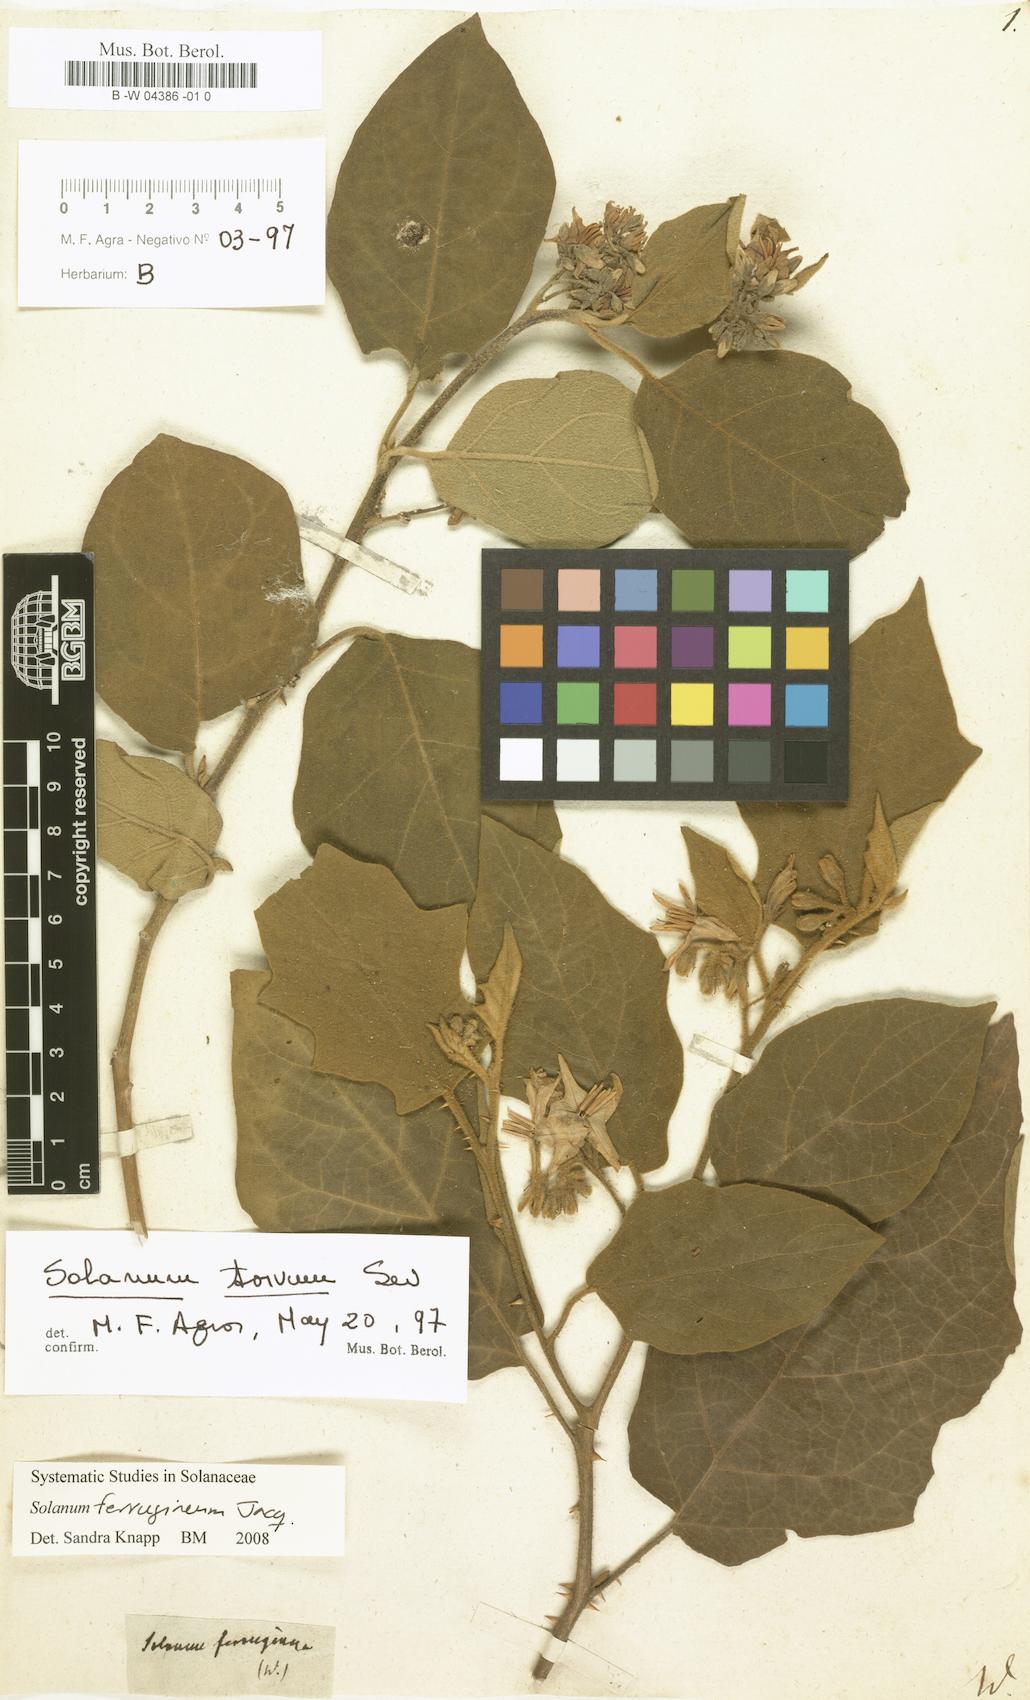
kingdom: Plantae
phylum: Tracheophyta
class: Magnoliopsida
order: Solanales
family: Solanaceae
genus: Solanum
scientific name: Solanum ferrugineum
